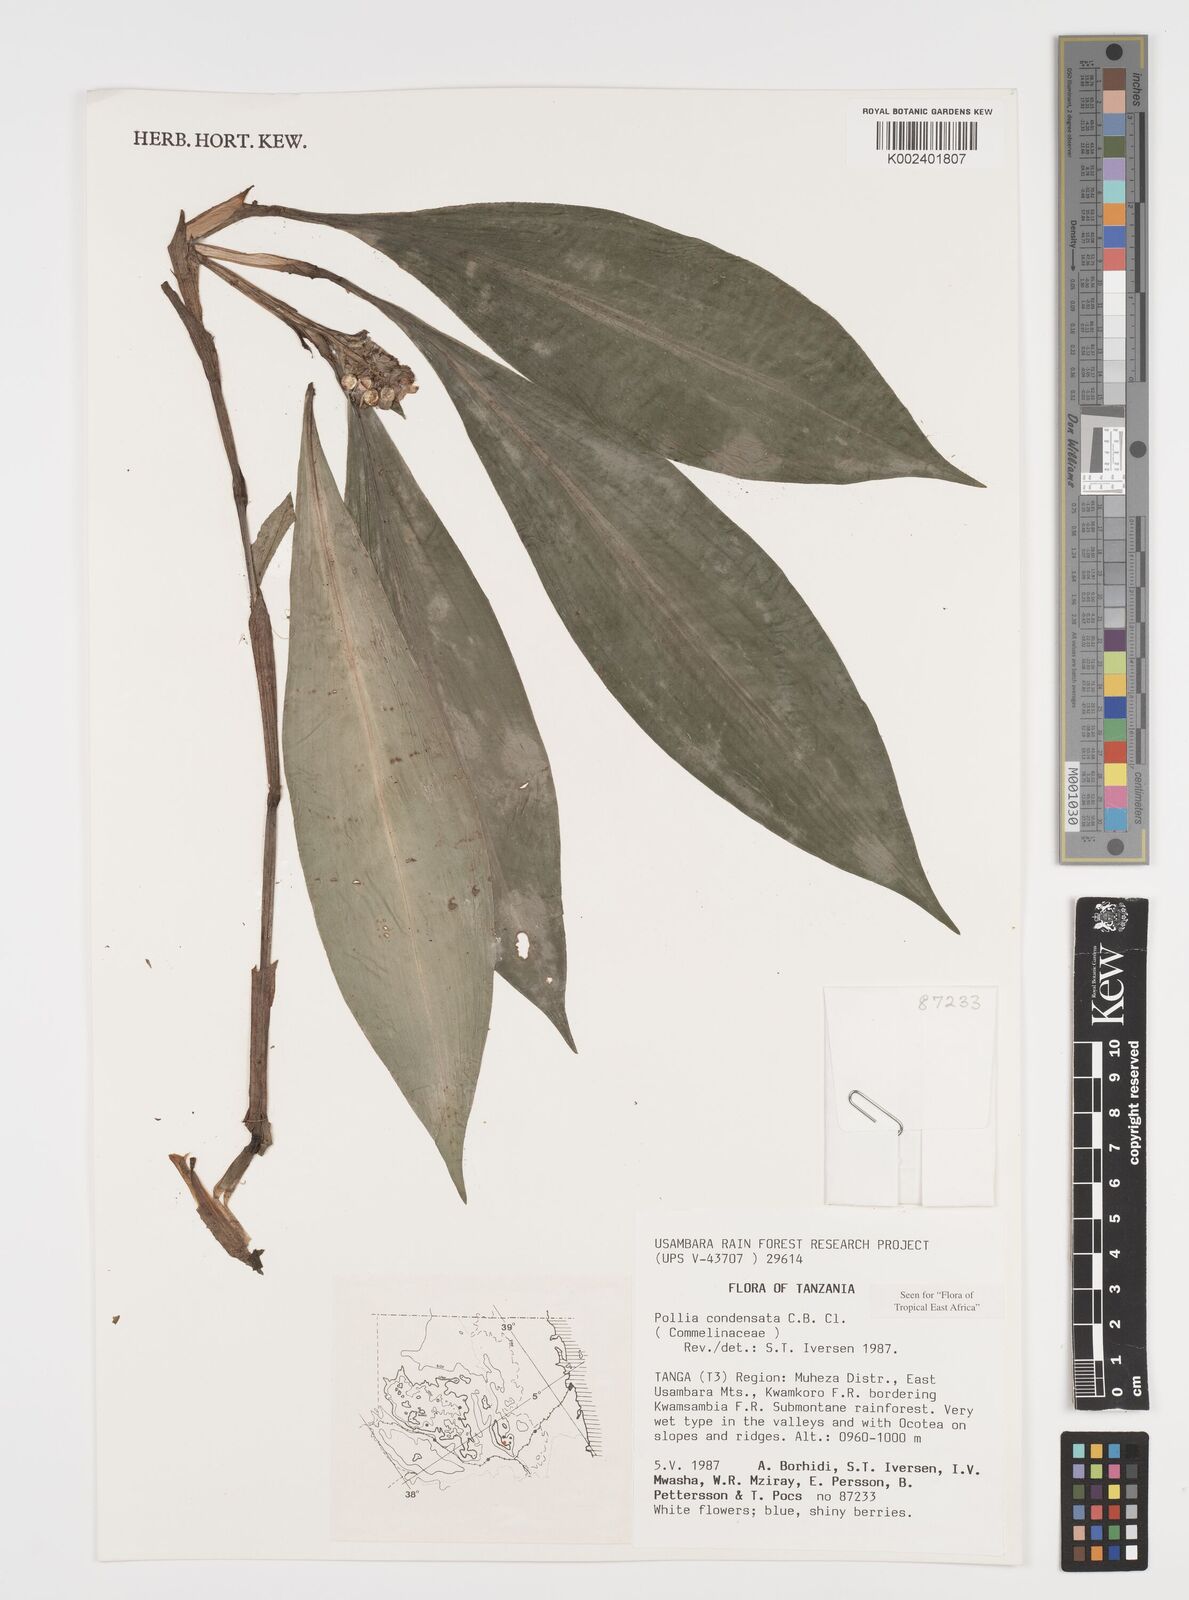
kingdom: Plantae
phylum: Tracheophyta
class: Liliopsida
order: Commelinales
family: Commelinaceae
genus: Pollia
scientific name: Pollia condensata
